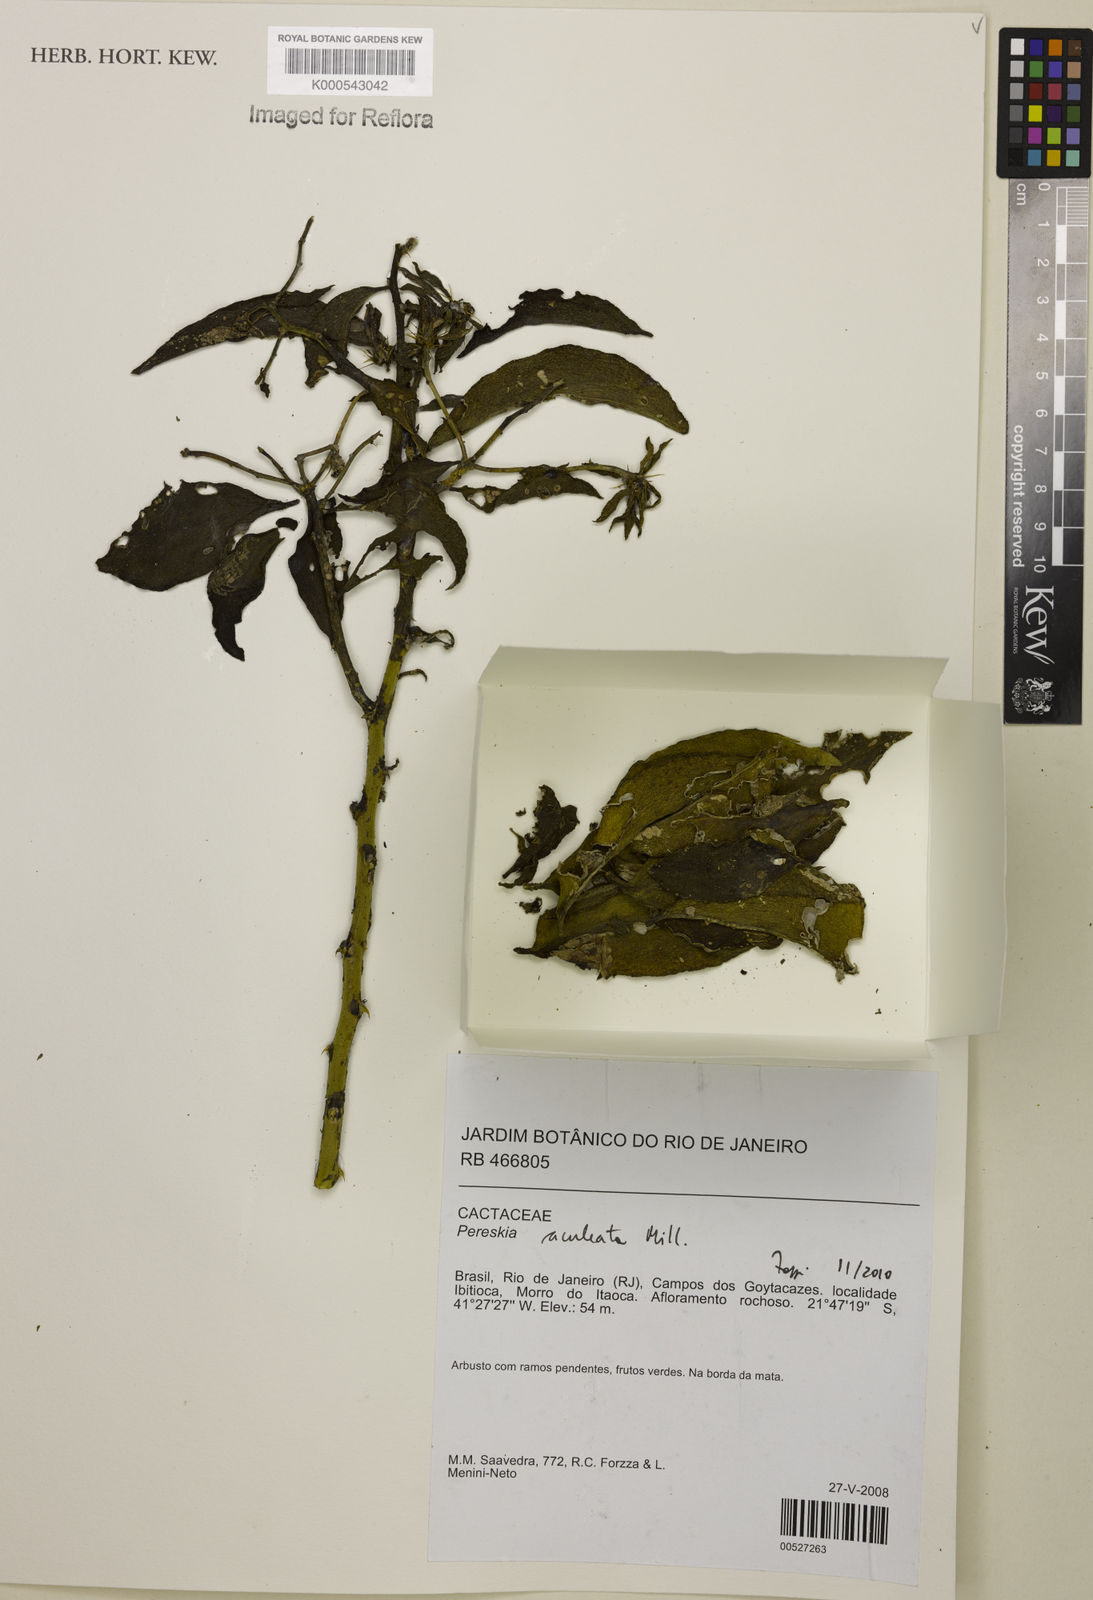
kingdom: Plantae
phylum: Tracheophyta
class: Magnoliopsida
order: Caryophyllales
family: Cactaceae
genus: Pereskia
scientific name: Pereskia aculeata
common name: Barbados gooseberry
